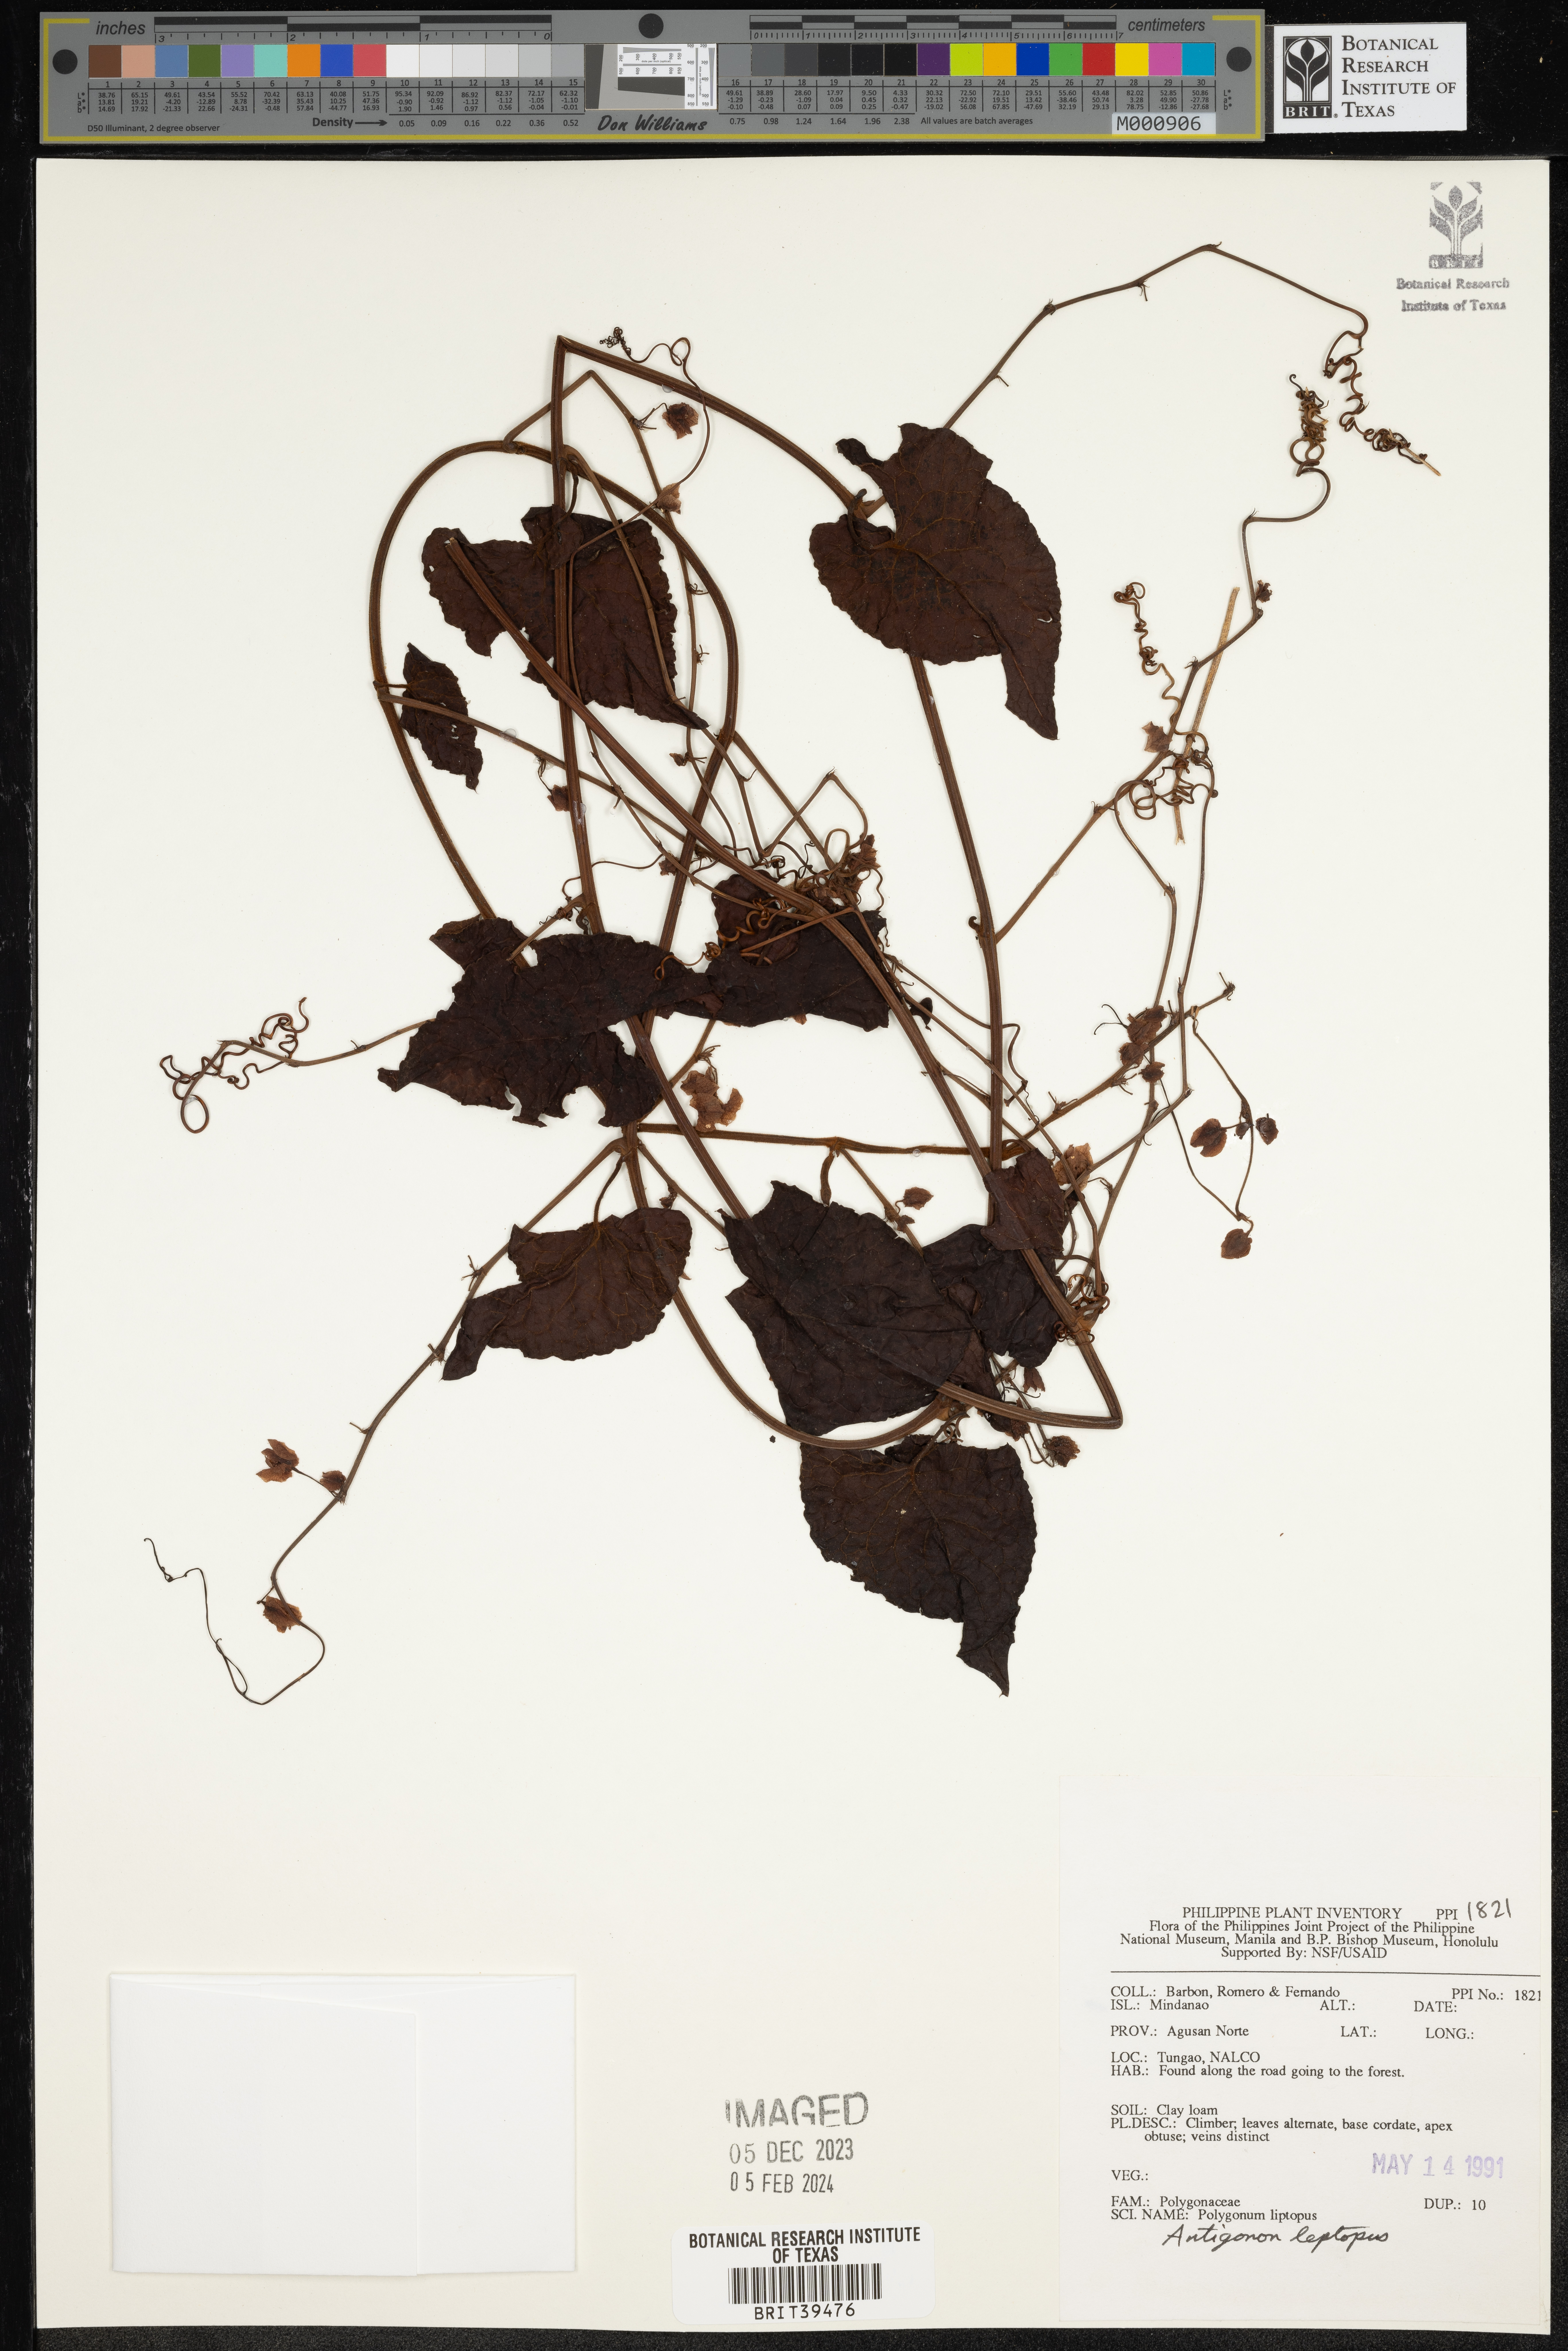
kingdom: Plantae
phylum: Tracheophyta
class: Magnoliopsida
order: Caryophyllales
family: Polygonaceae
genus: Antigonon
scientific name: Antigonon leptopus
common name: Coral vine
